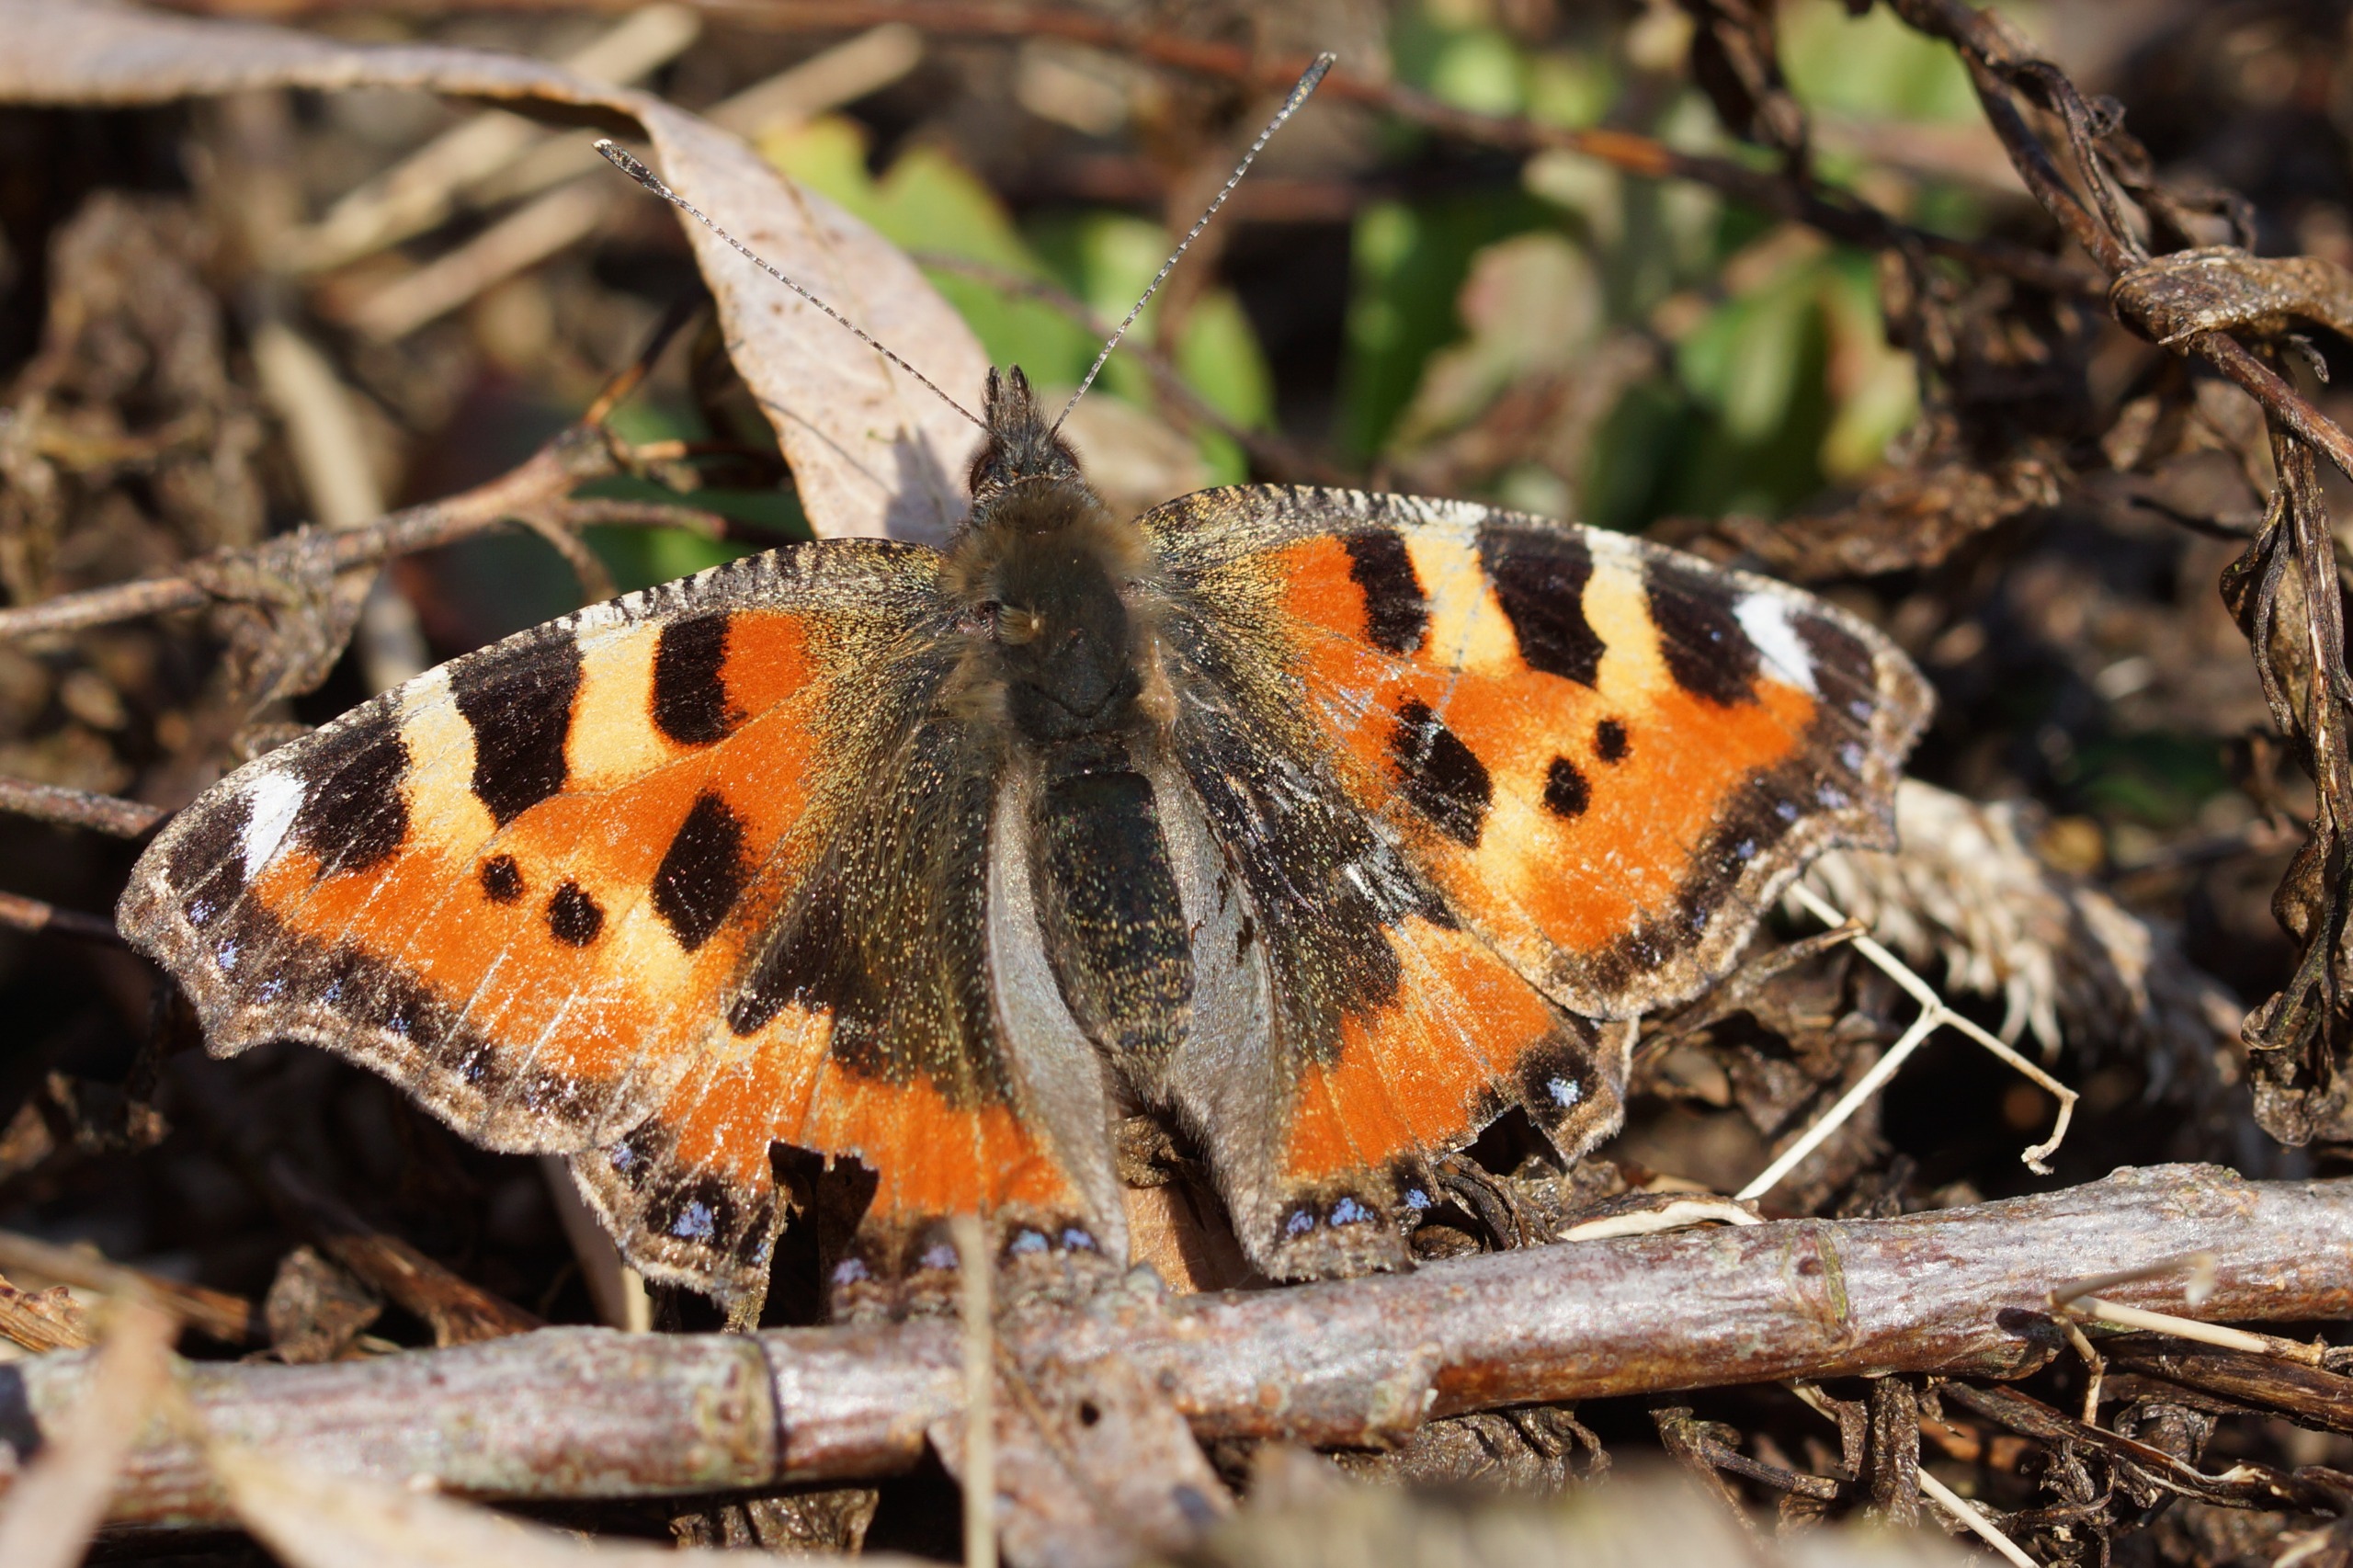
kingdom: Animalia
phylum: Arthropoda
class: Insecta
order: Lepidoptera
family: Nymphalidae
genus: Aglais
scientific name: Aglais urticae
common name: Nældens takvinge
